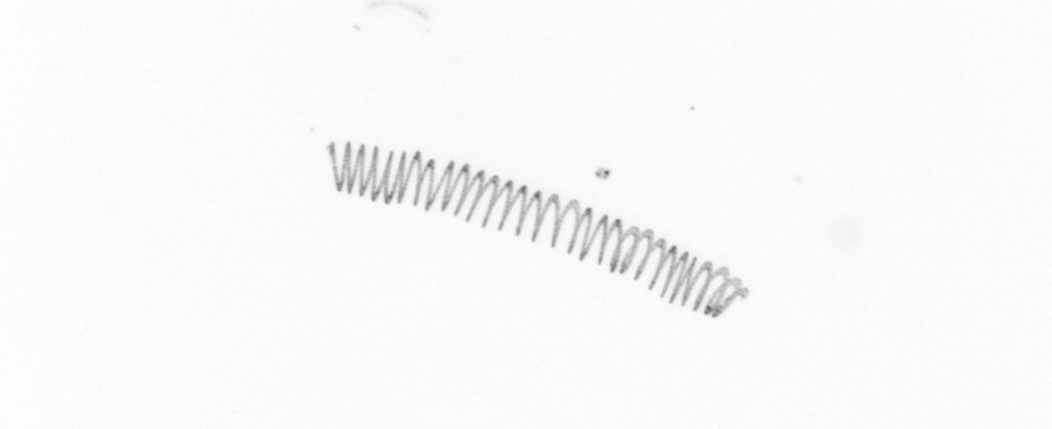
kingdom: Chromista
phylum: Ochrophyta
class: Bacillariophyceae
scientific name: Bacillariophyceae
